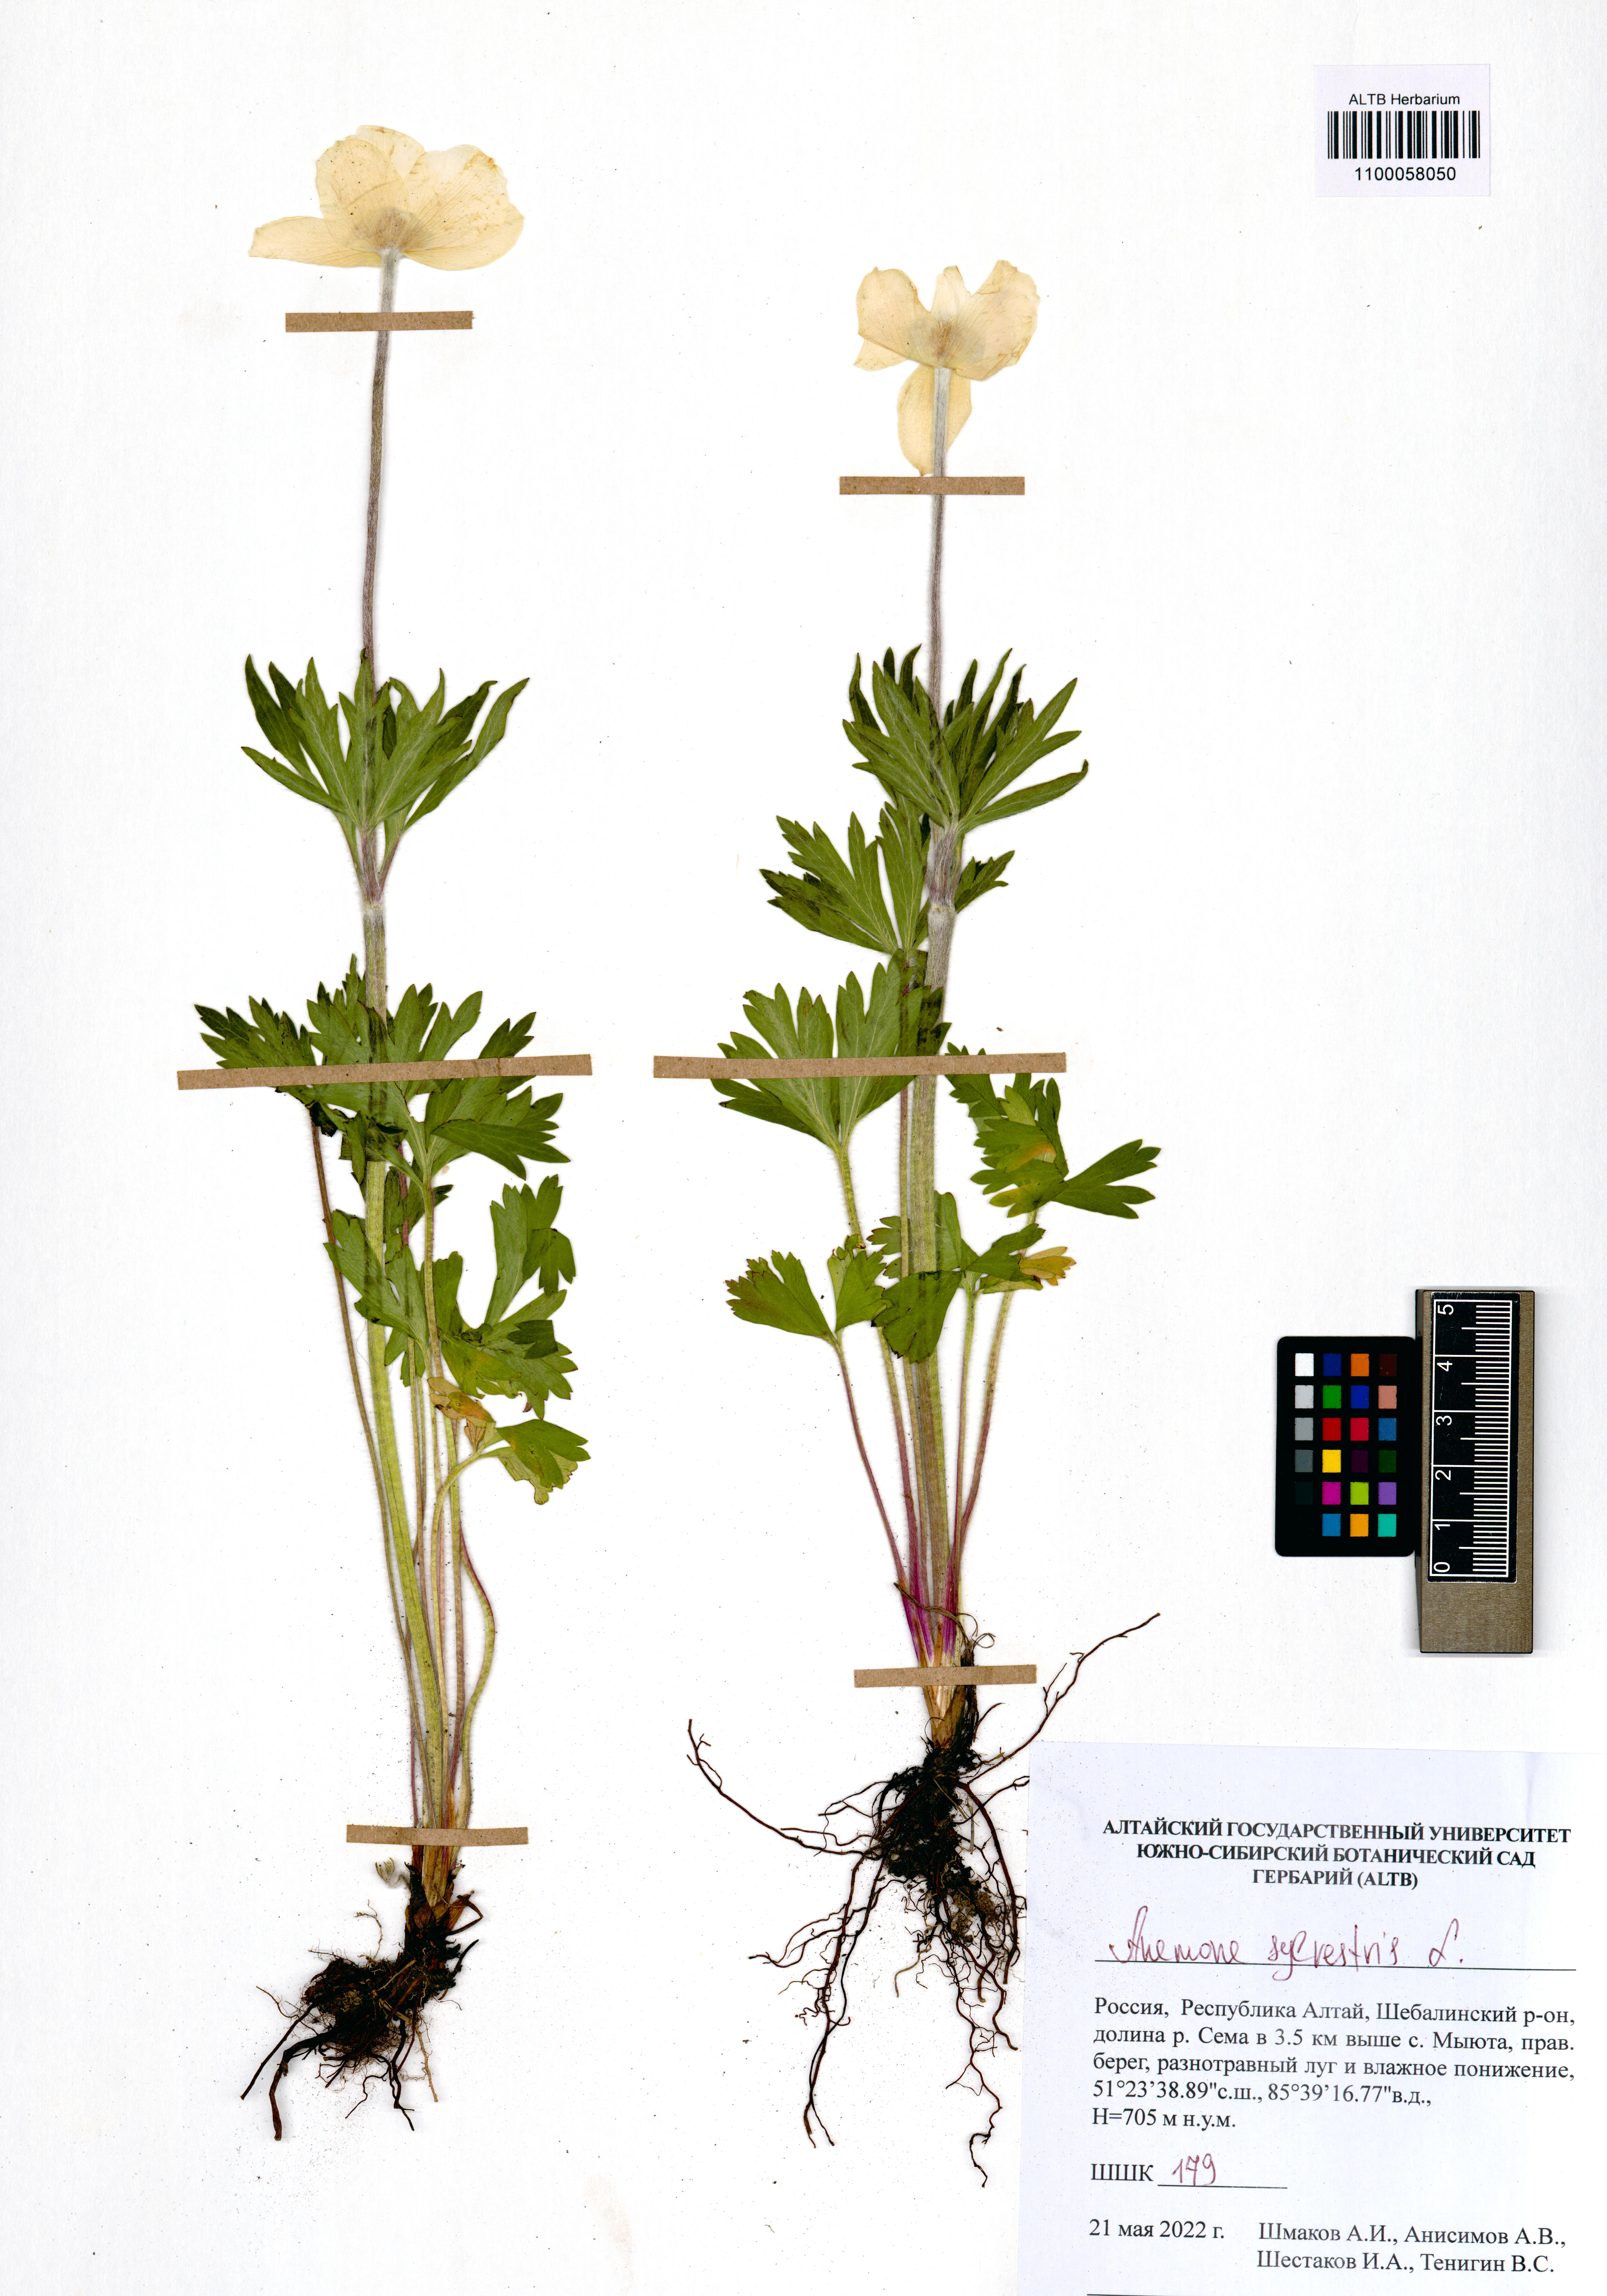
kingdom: Plantae
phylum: Tracheophyta
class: Magnoliopsida
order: Ranunculales
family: Ranunculaceae
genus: Anemone
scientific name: Anemone sylvestris
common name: Snowdrop anemone
